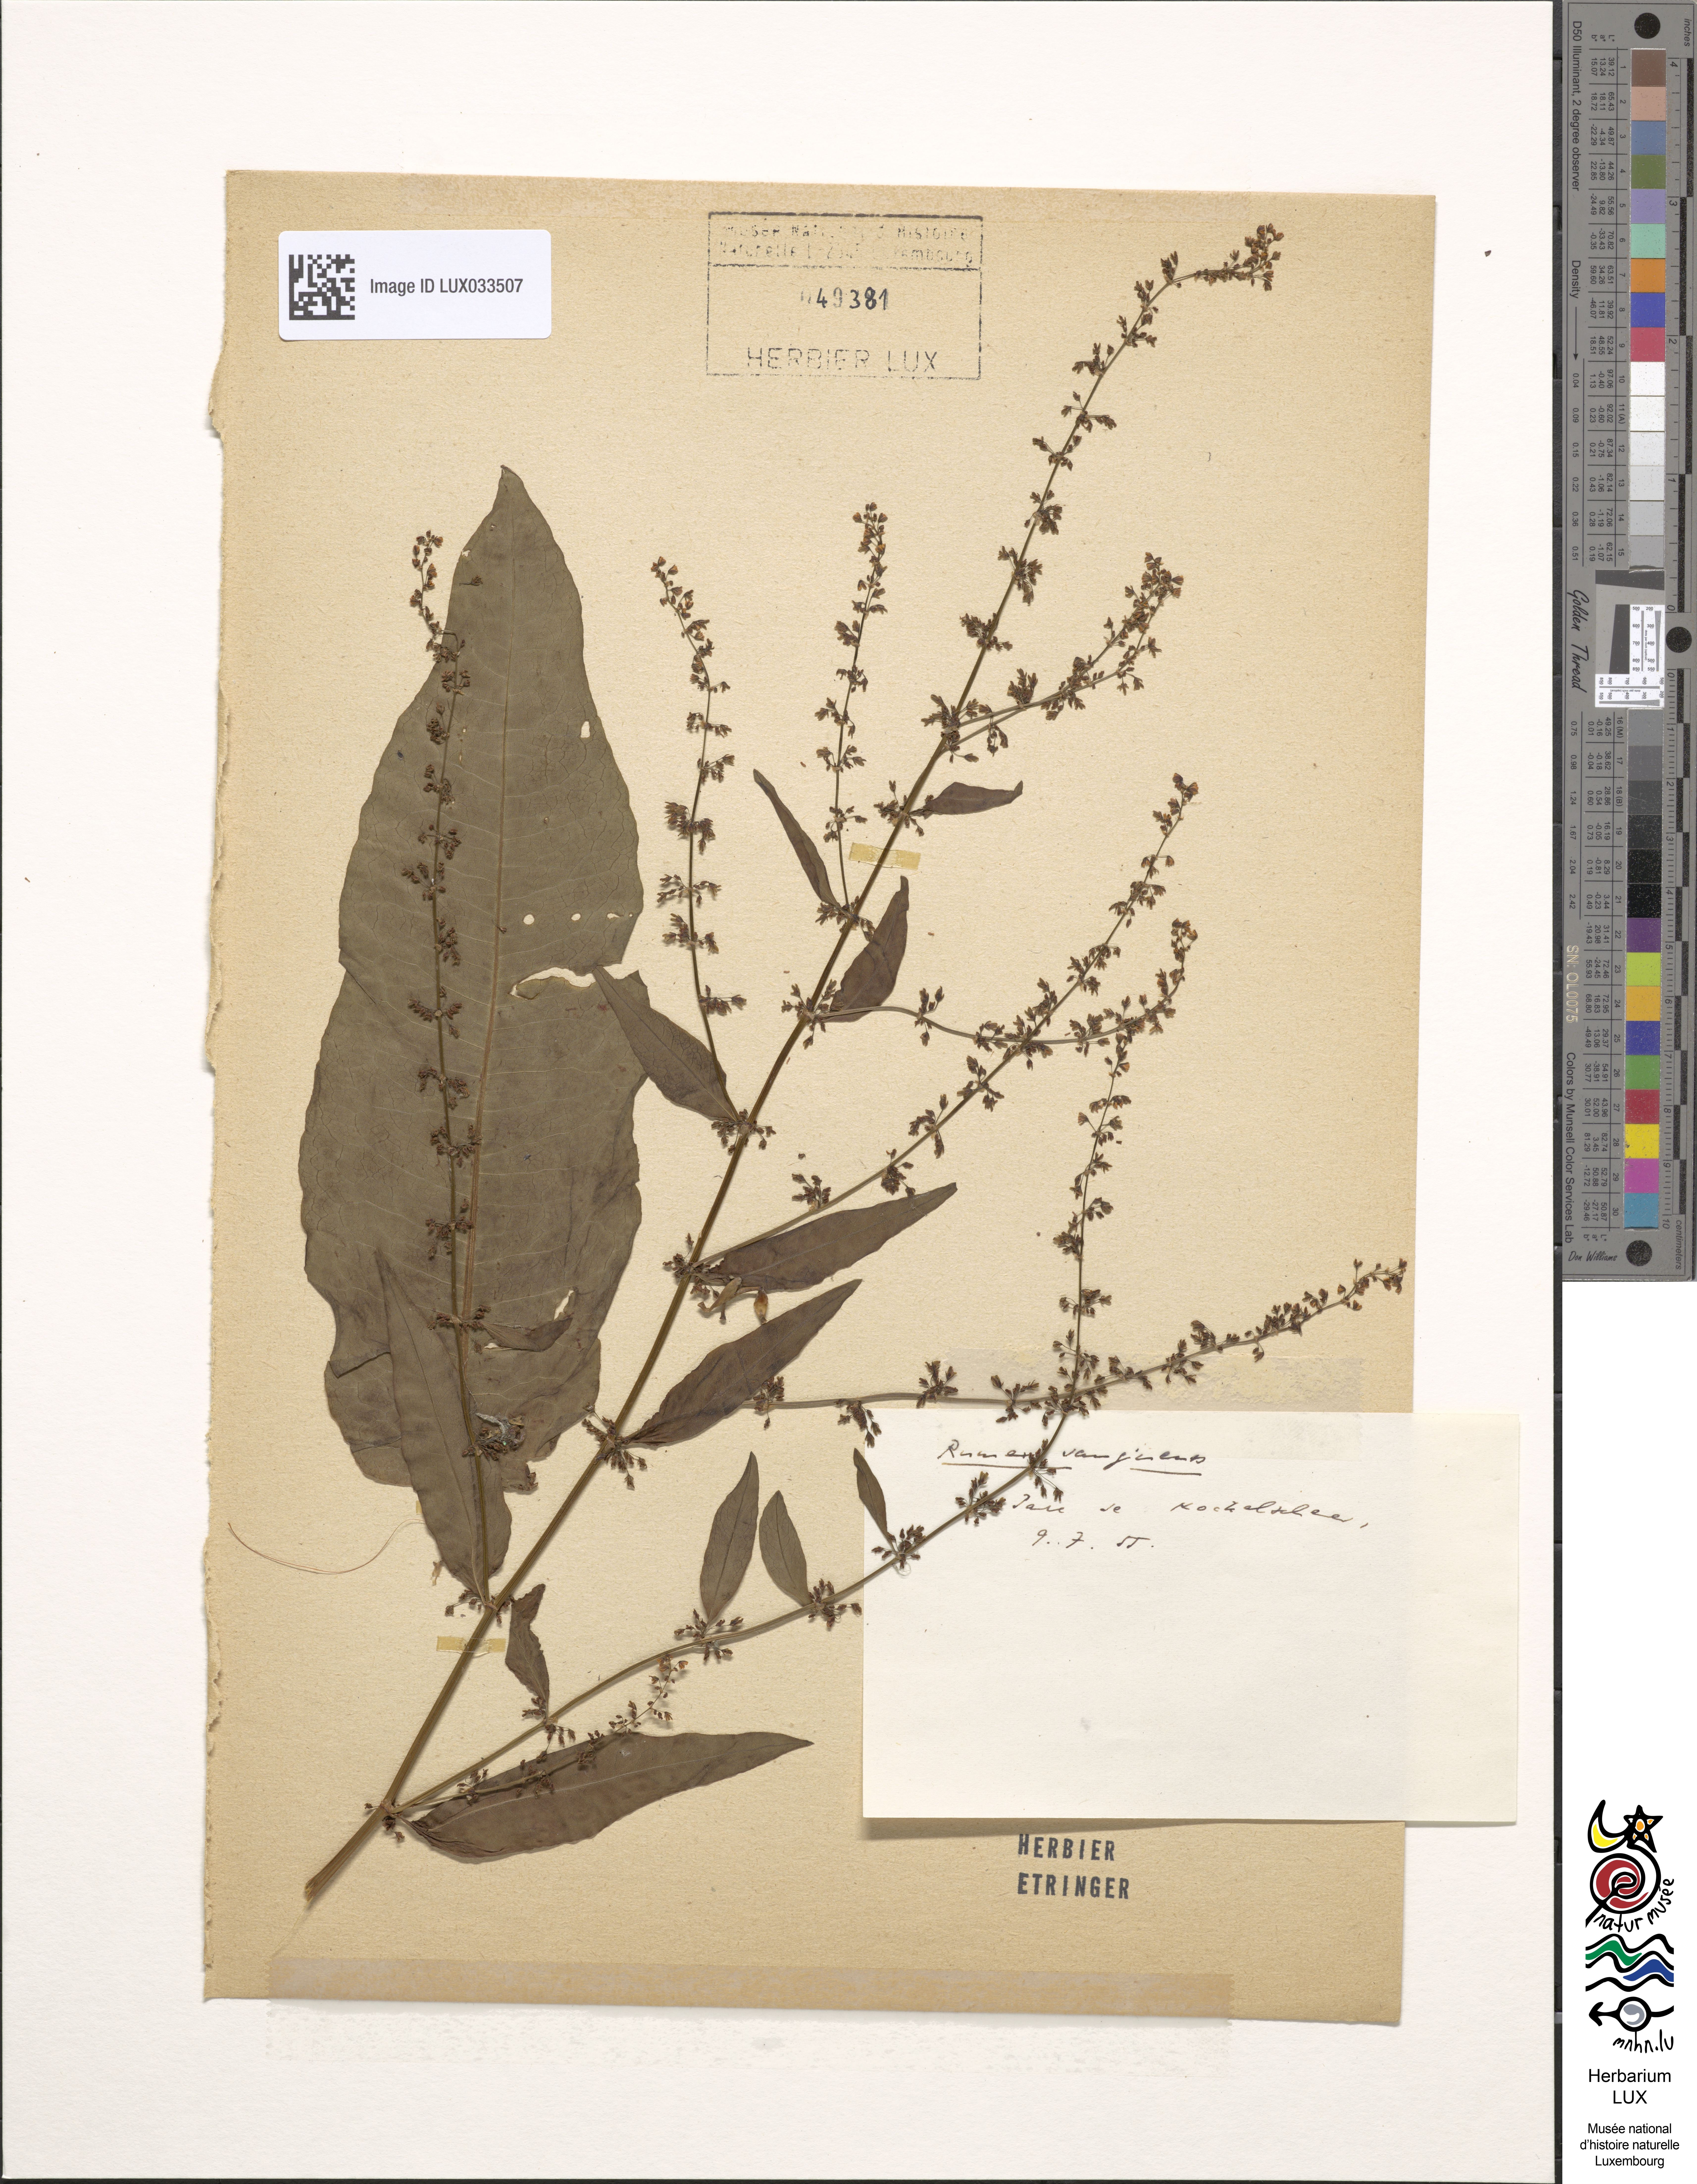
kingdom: Plantae
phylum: Tracheophyta
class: Magnoliopsida
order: Caryophyllales
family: Polygonaceae
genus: Rumex
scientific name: Rumex sanguineus
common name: Wood dock
